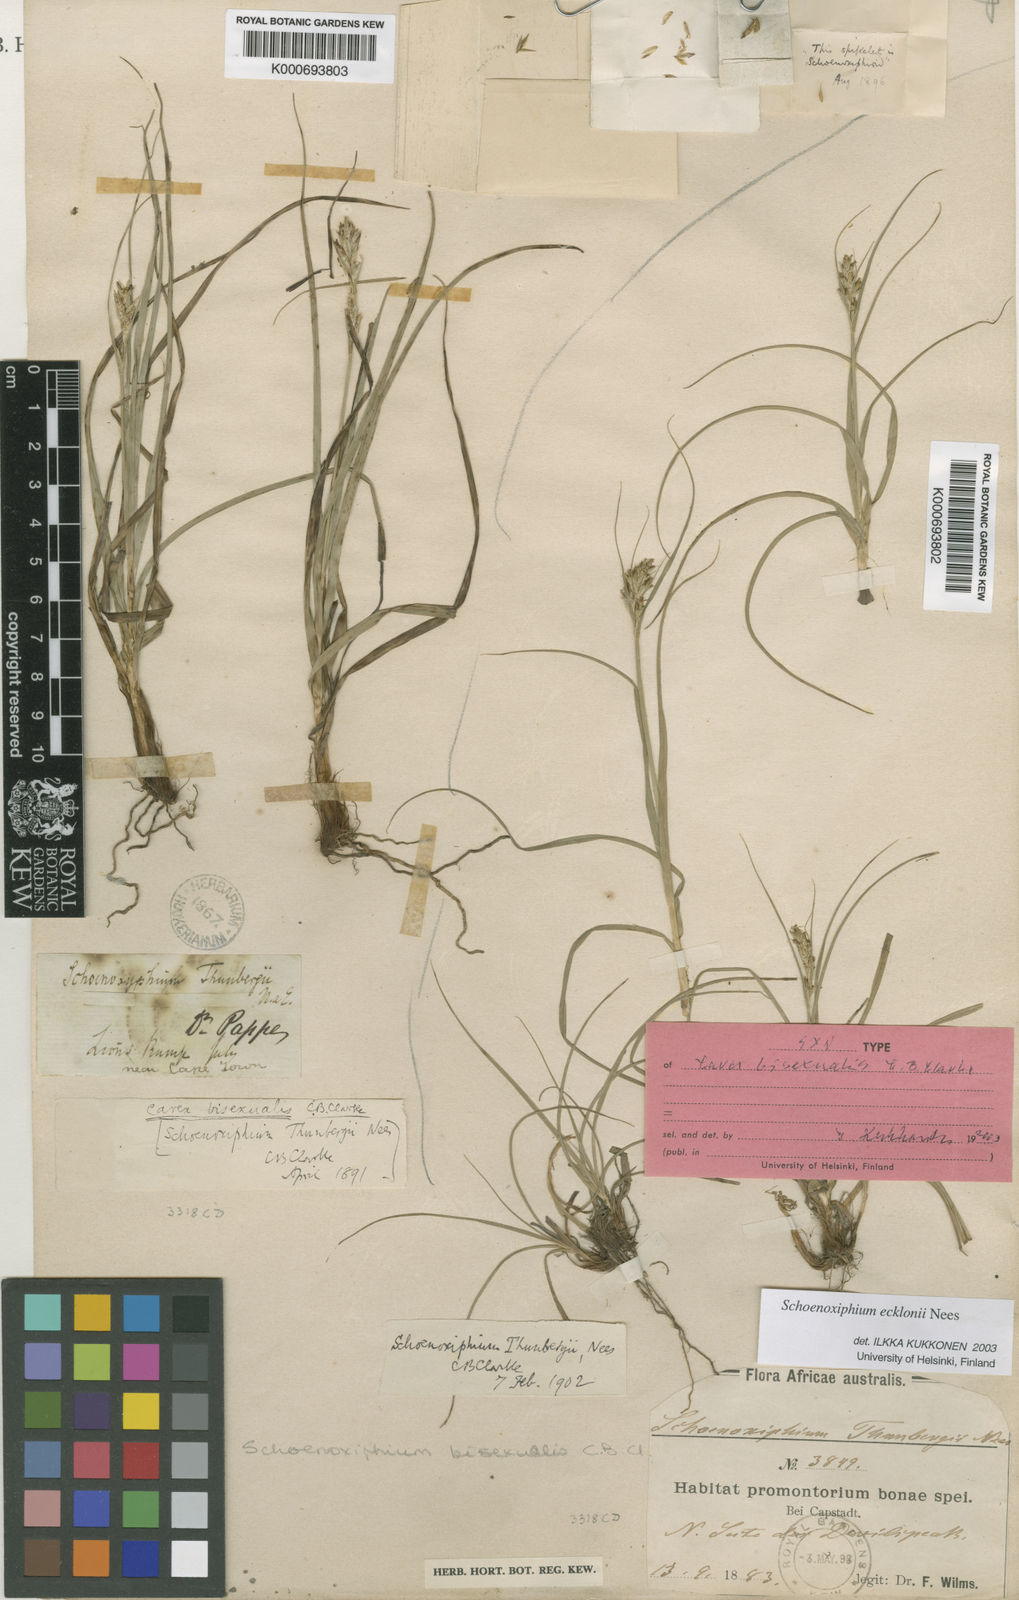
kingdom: Plantae
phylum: Tracheophyta
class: Liliopsida
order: Poales
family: Cyperaceae
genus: Carex
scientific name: Carex capensis
